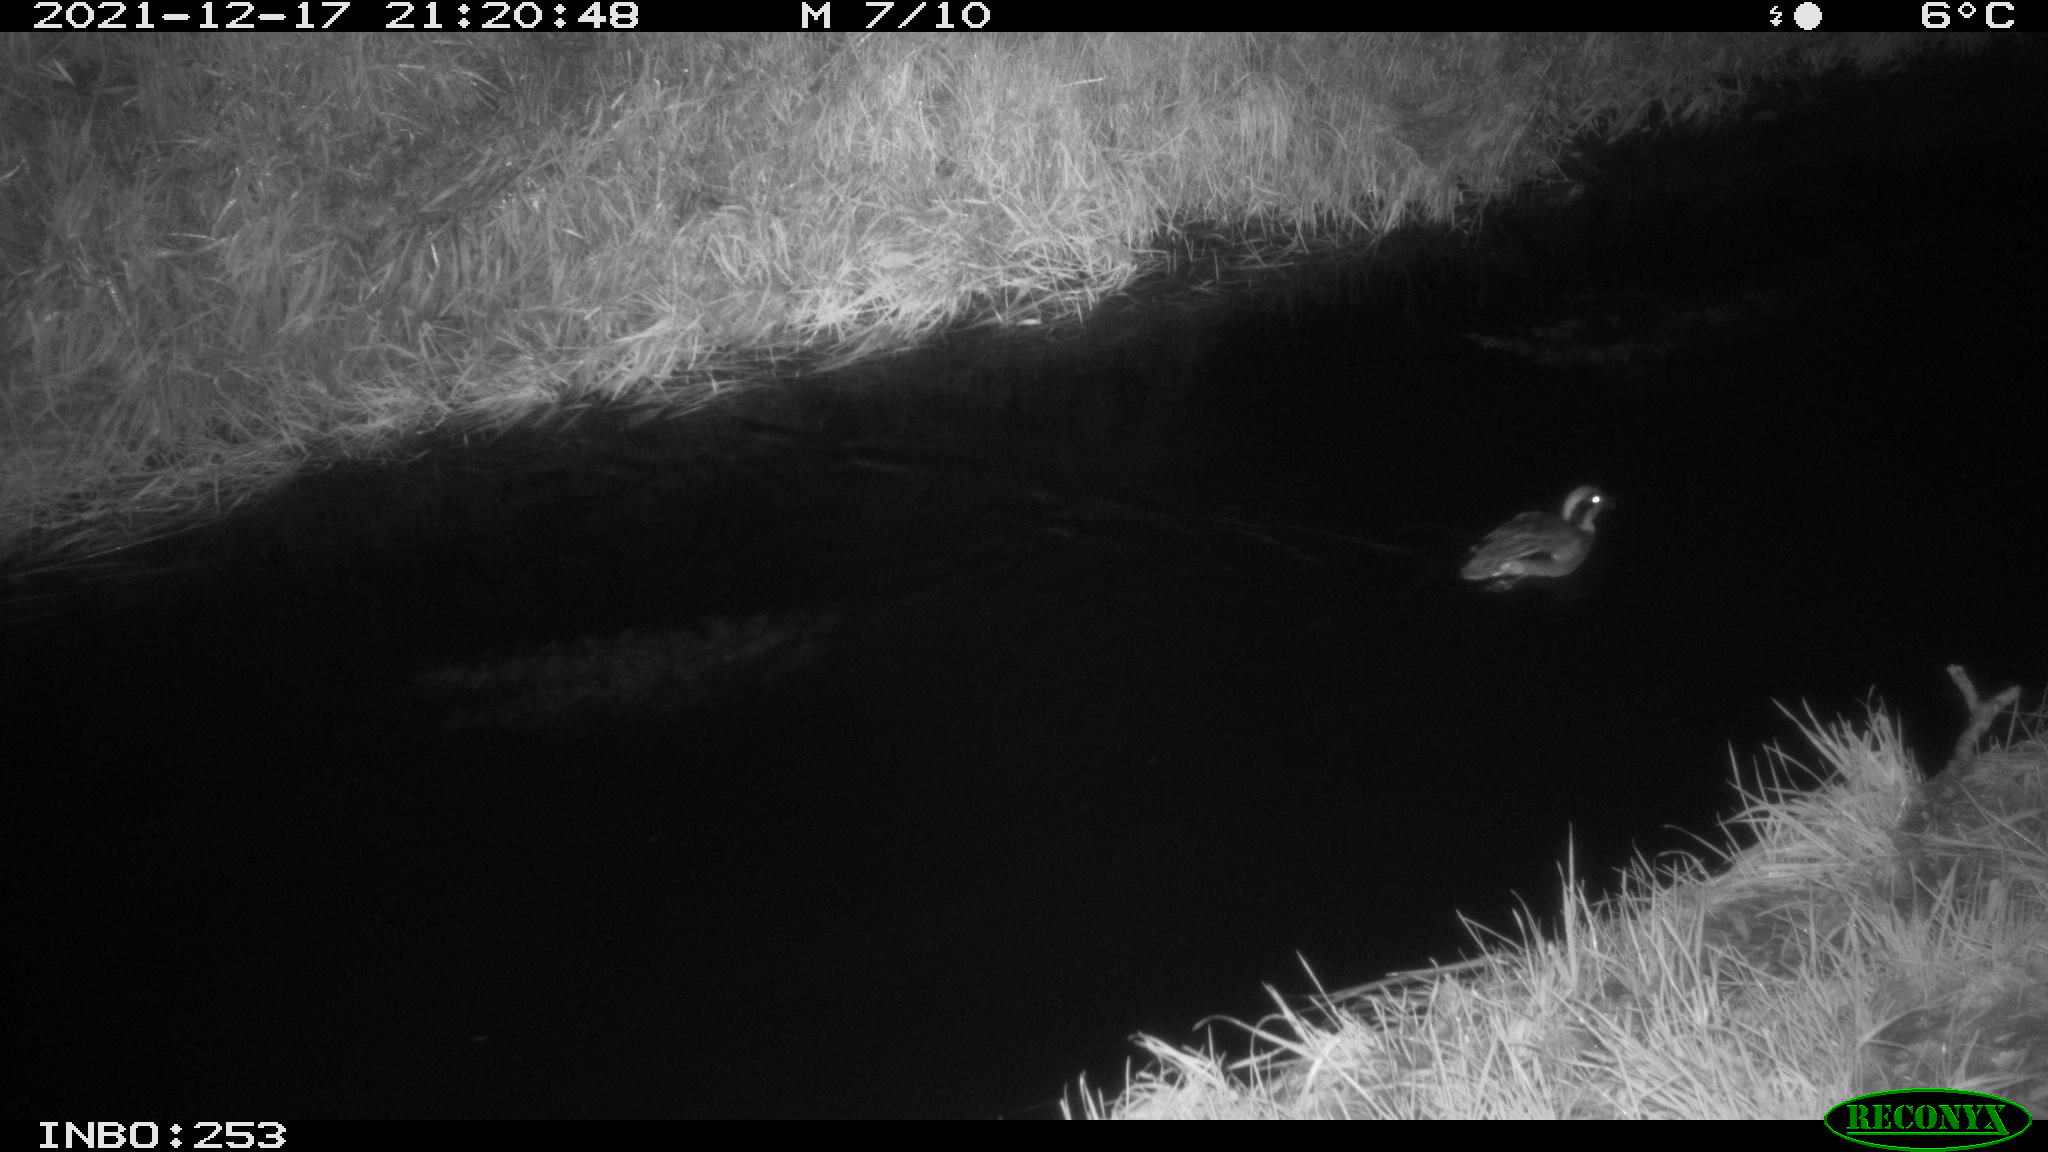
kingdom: Animalia
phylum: Chordata
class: Aves
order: Anseriformes
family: Anatidae
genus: Anas
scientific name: Anas crecca
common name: Eurasian teal
